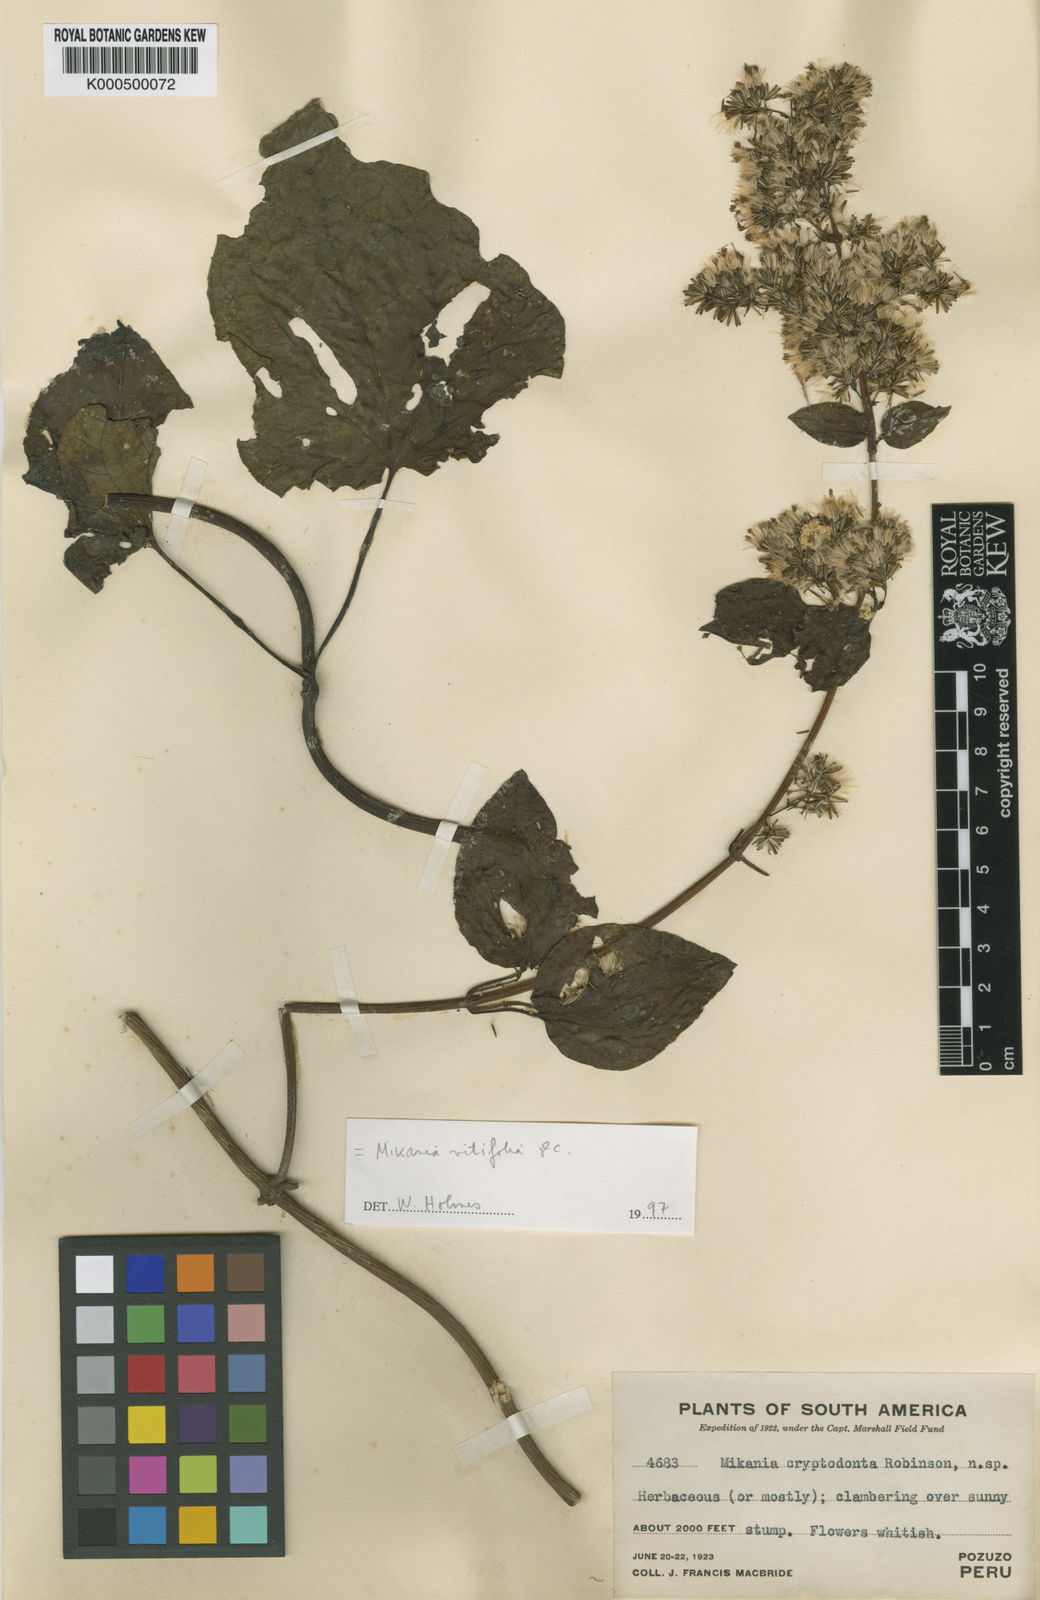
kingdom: Plantae
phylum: Tracheophyta
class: Magnoliopsida
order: Asterales
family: Asteraceae
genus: Mikania
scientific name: Mikania vitifolia
